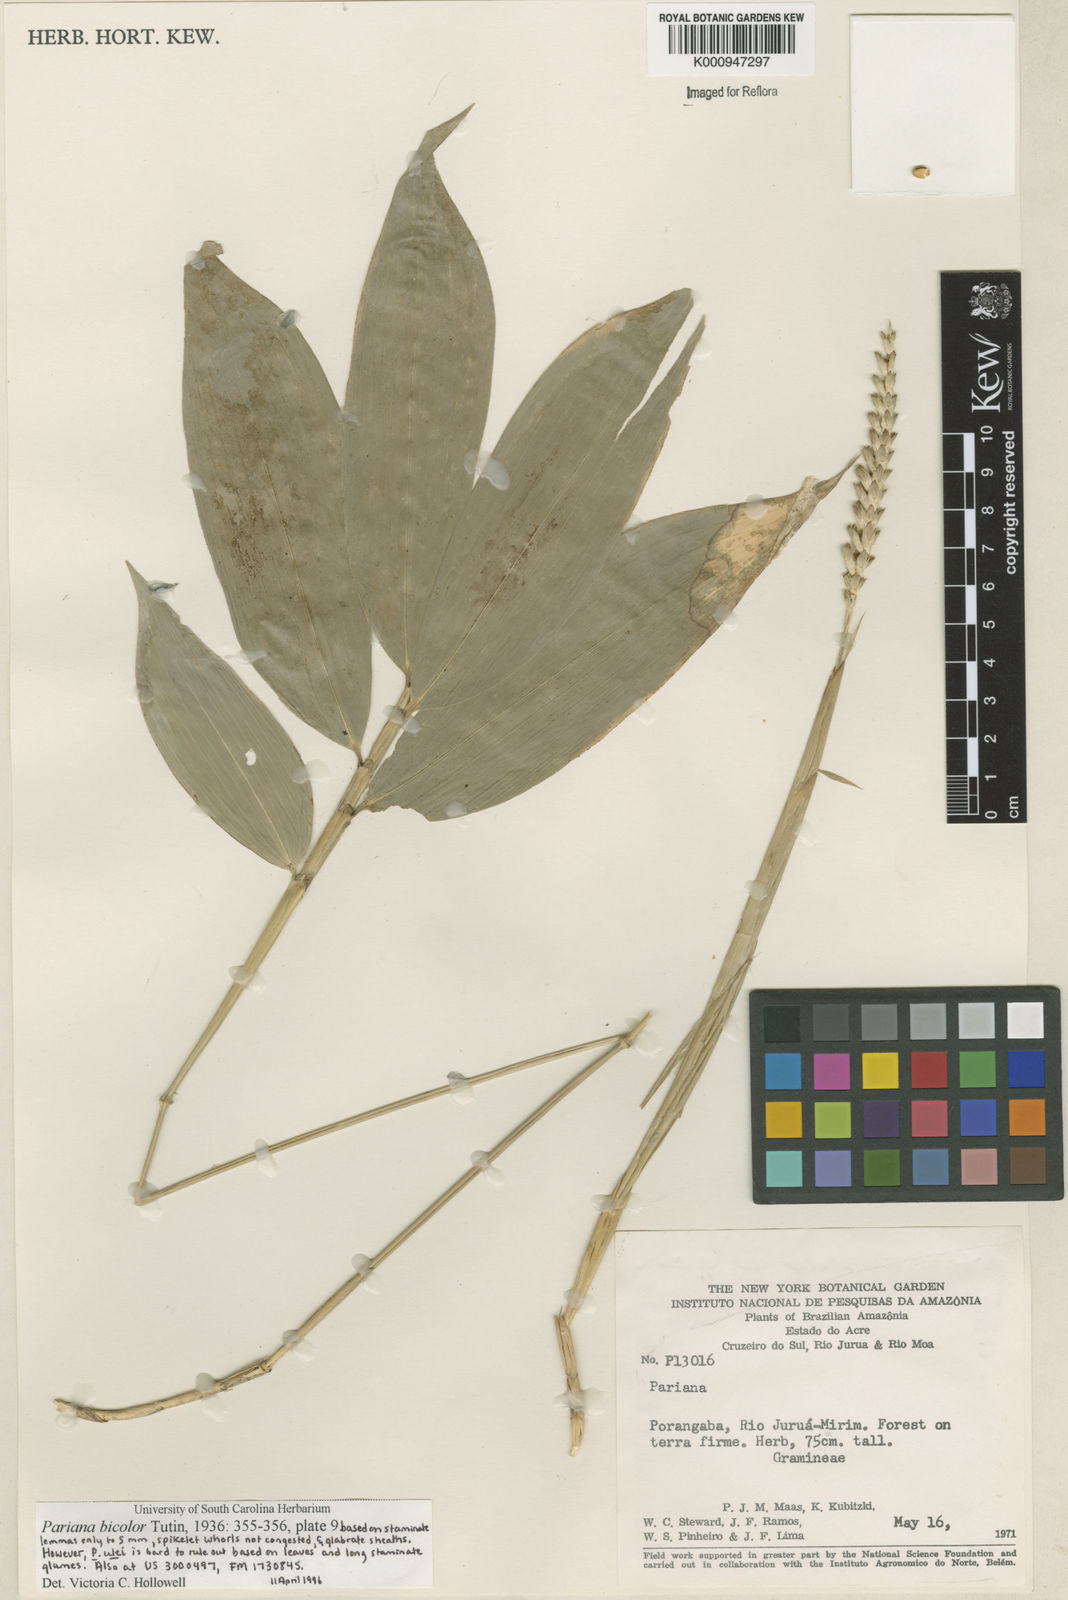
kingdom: Plantae
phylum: Tracheophyta
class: Liliopsida
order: Poales
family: Poaceae
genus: Pariana
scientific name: Pariana bicolor
